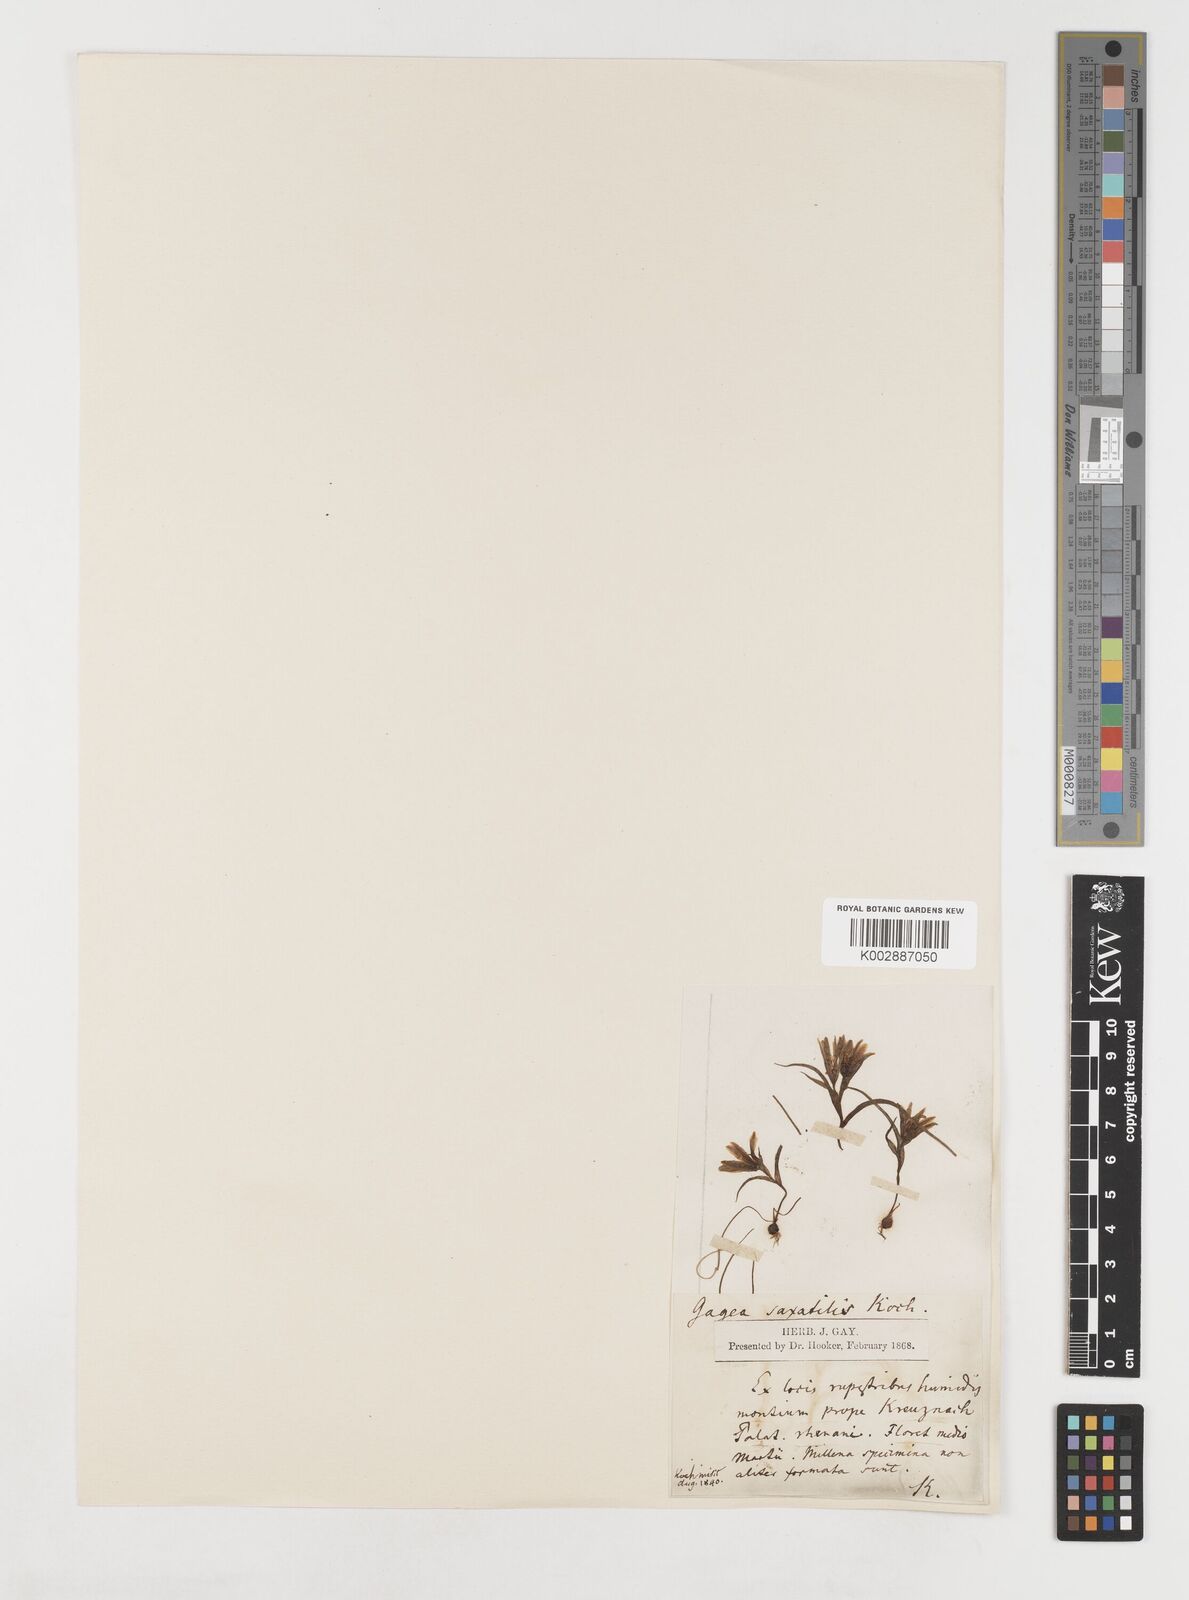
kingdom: Plantae
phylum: Tracheophyta
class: Liliopsida
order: Liliales
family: Liliaceae
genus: Gagea
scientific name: Gagea bohemica
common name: Early star-of-bethlehem
